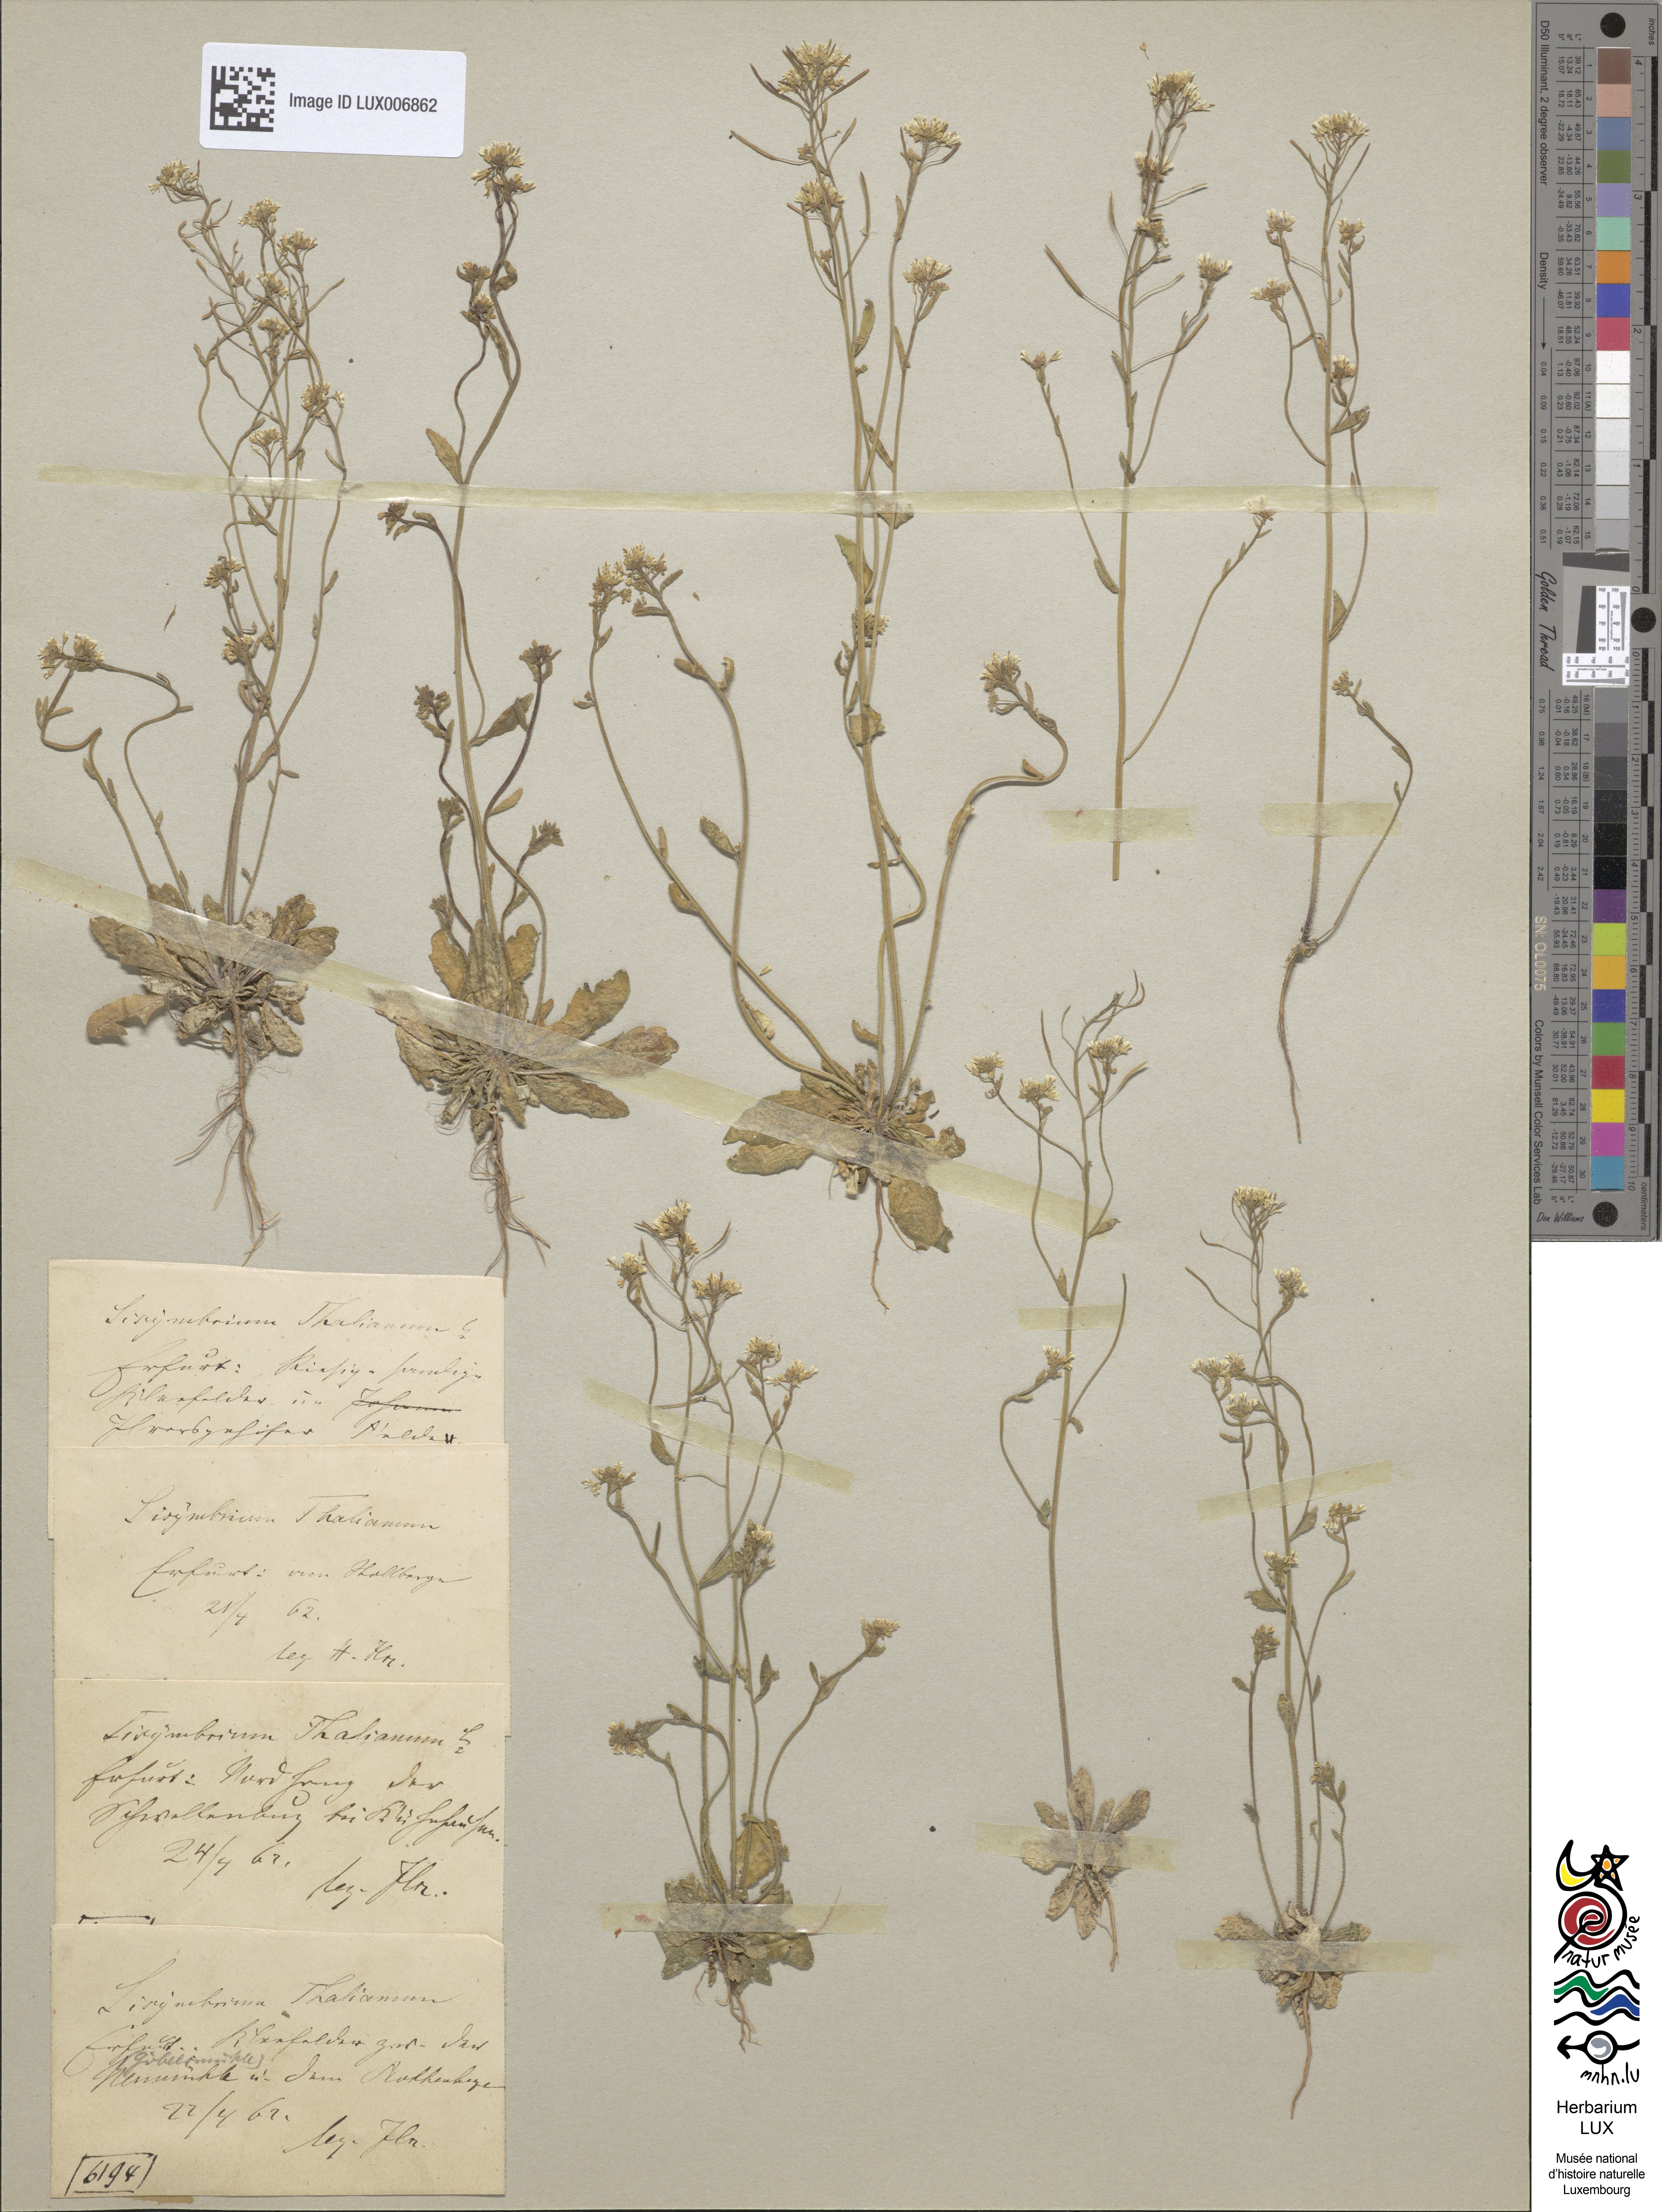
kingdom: Plantae
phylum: Tracheophyta
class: Magnoliopsida
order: Brassicales
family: Brassicaceae
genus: Arabidopsis
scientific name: Arabidopsis thaliana
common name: Thale cress
